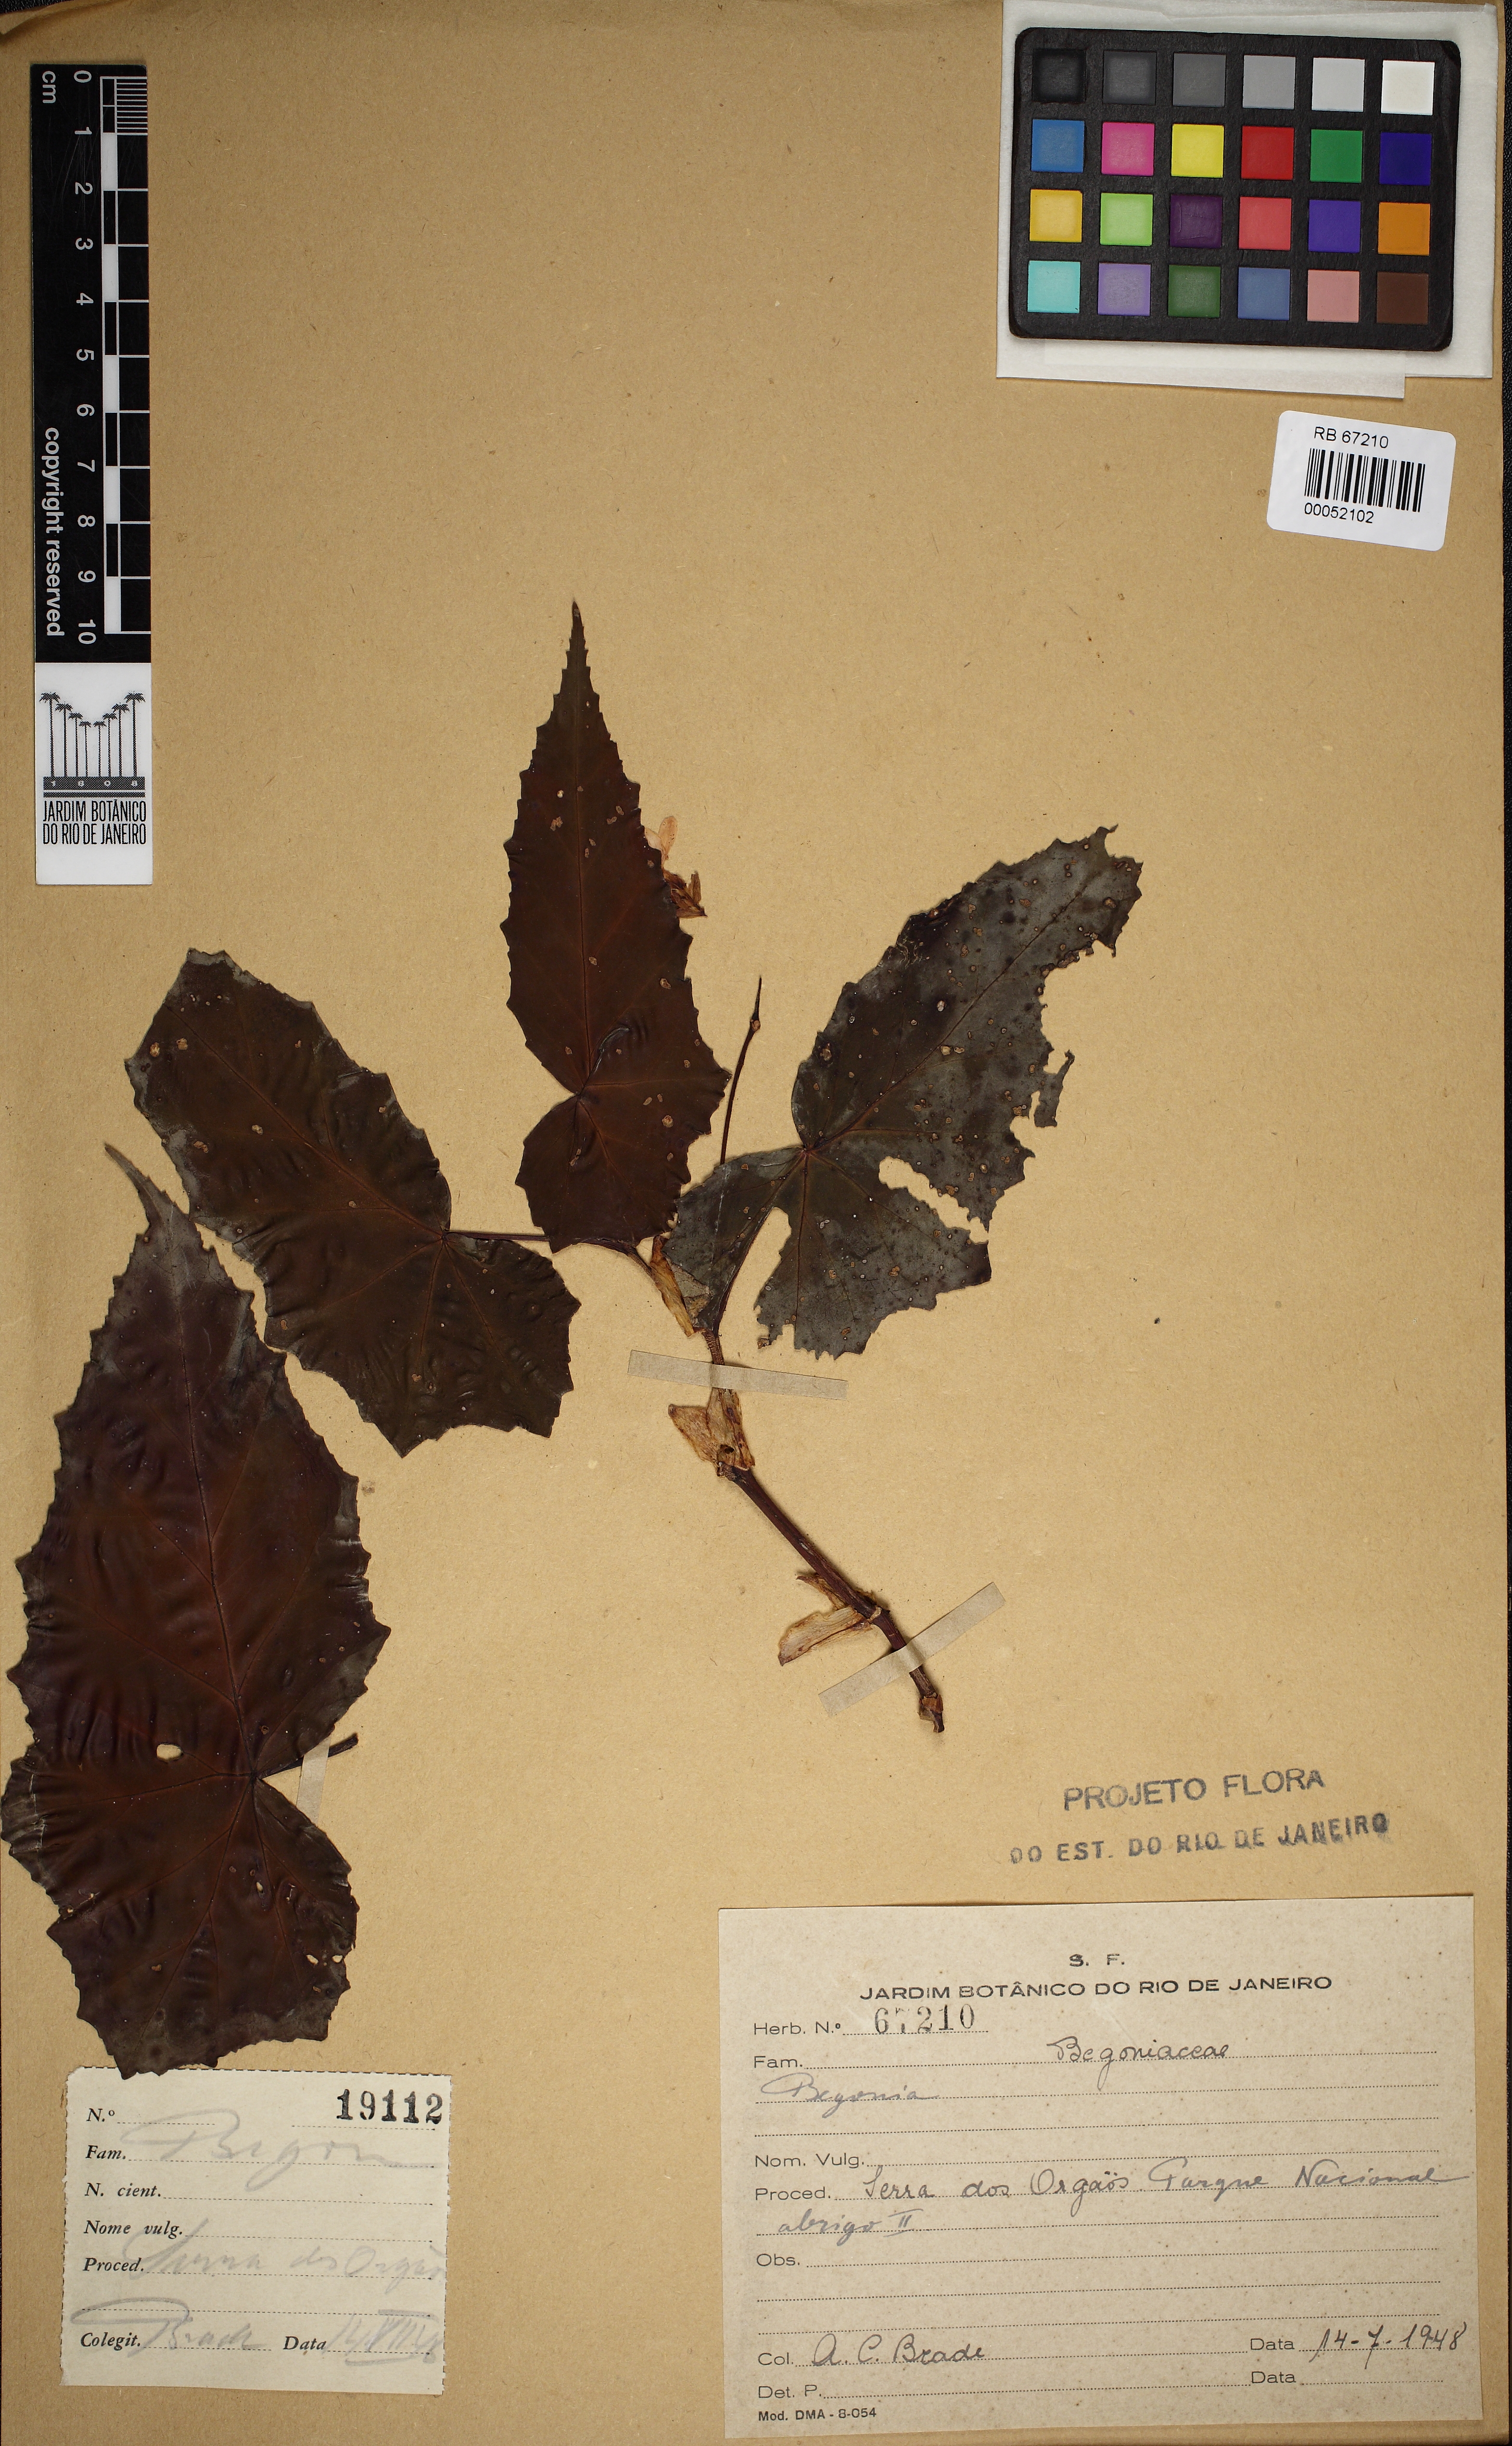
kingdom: Plantae
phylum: Tracheophyta
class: Magnoliopsida
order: Cucurbitales
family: Begoniaceae
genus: Begonia
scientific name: Begonia angulata
